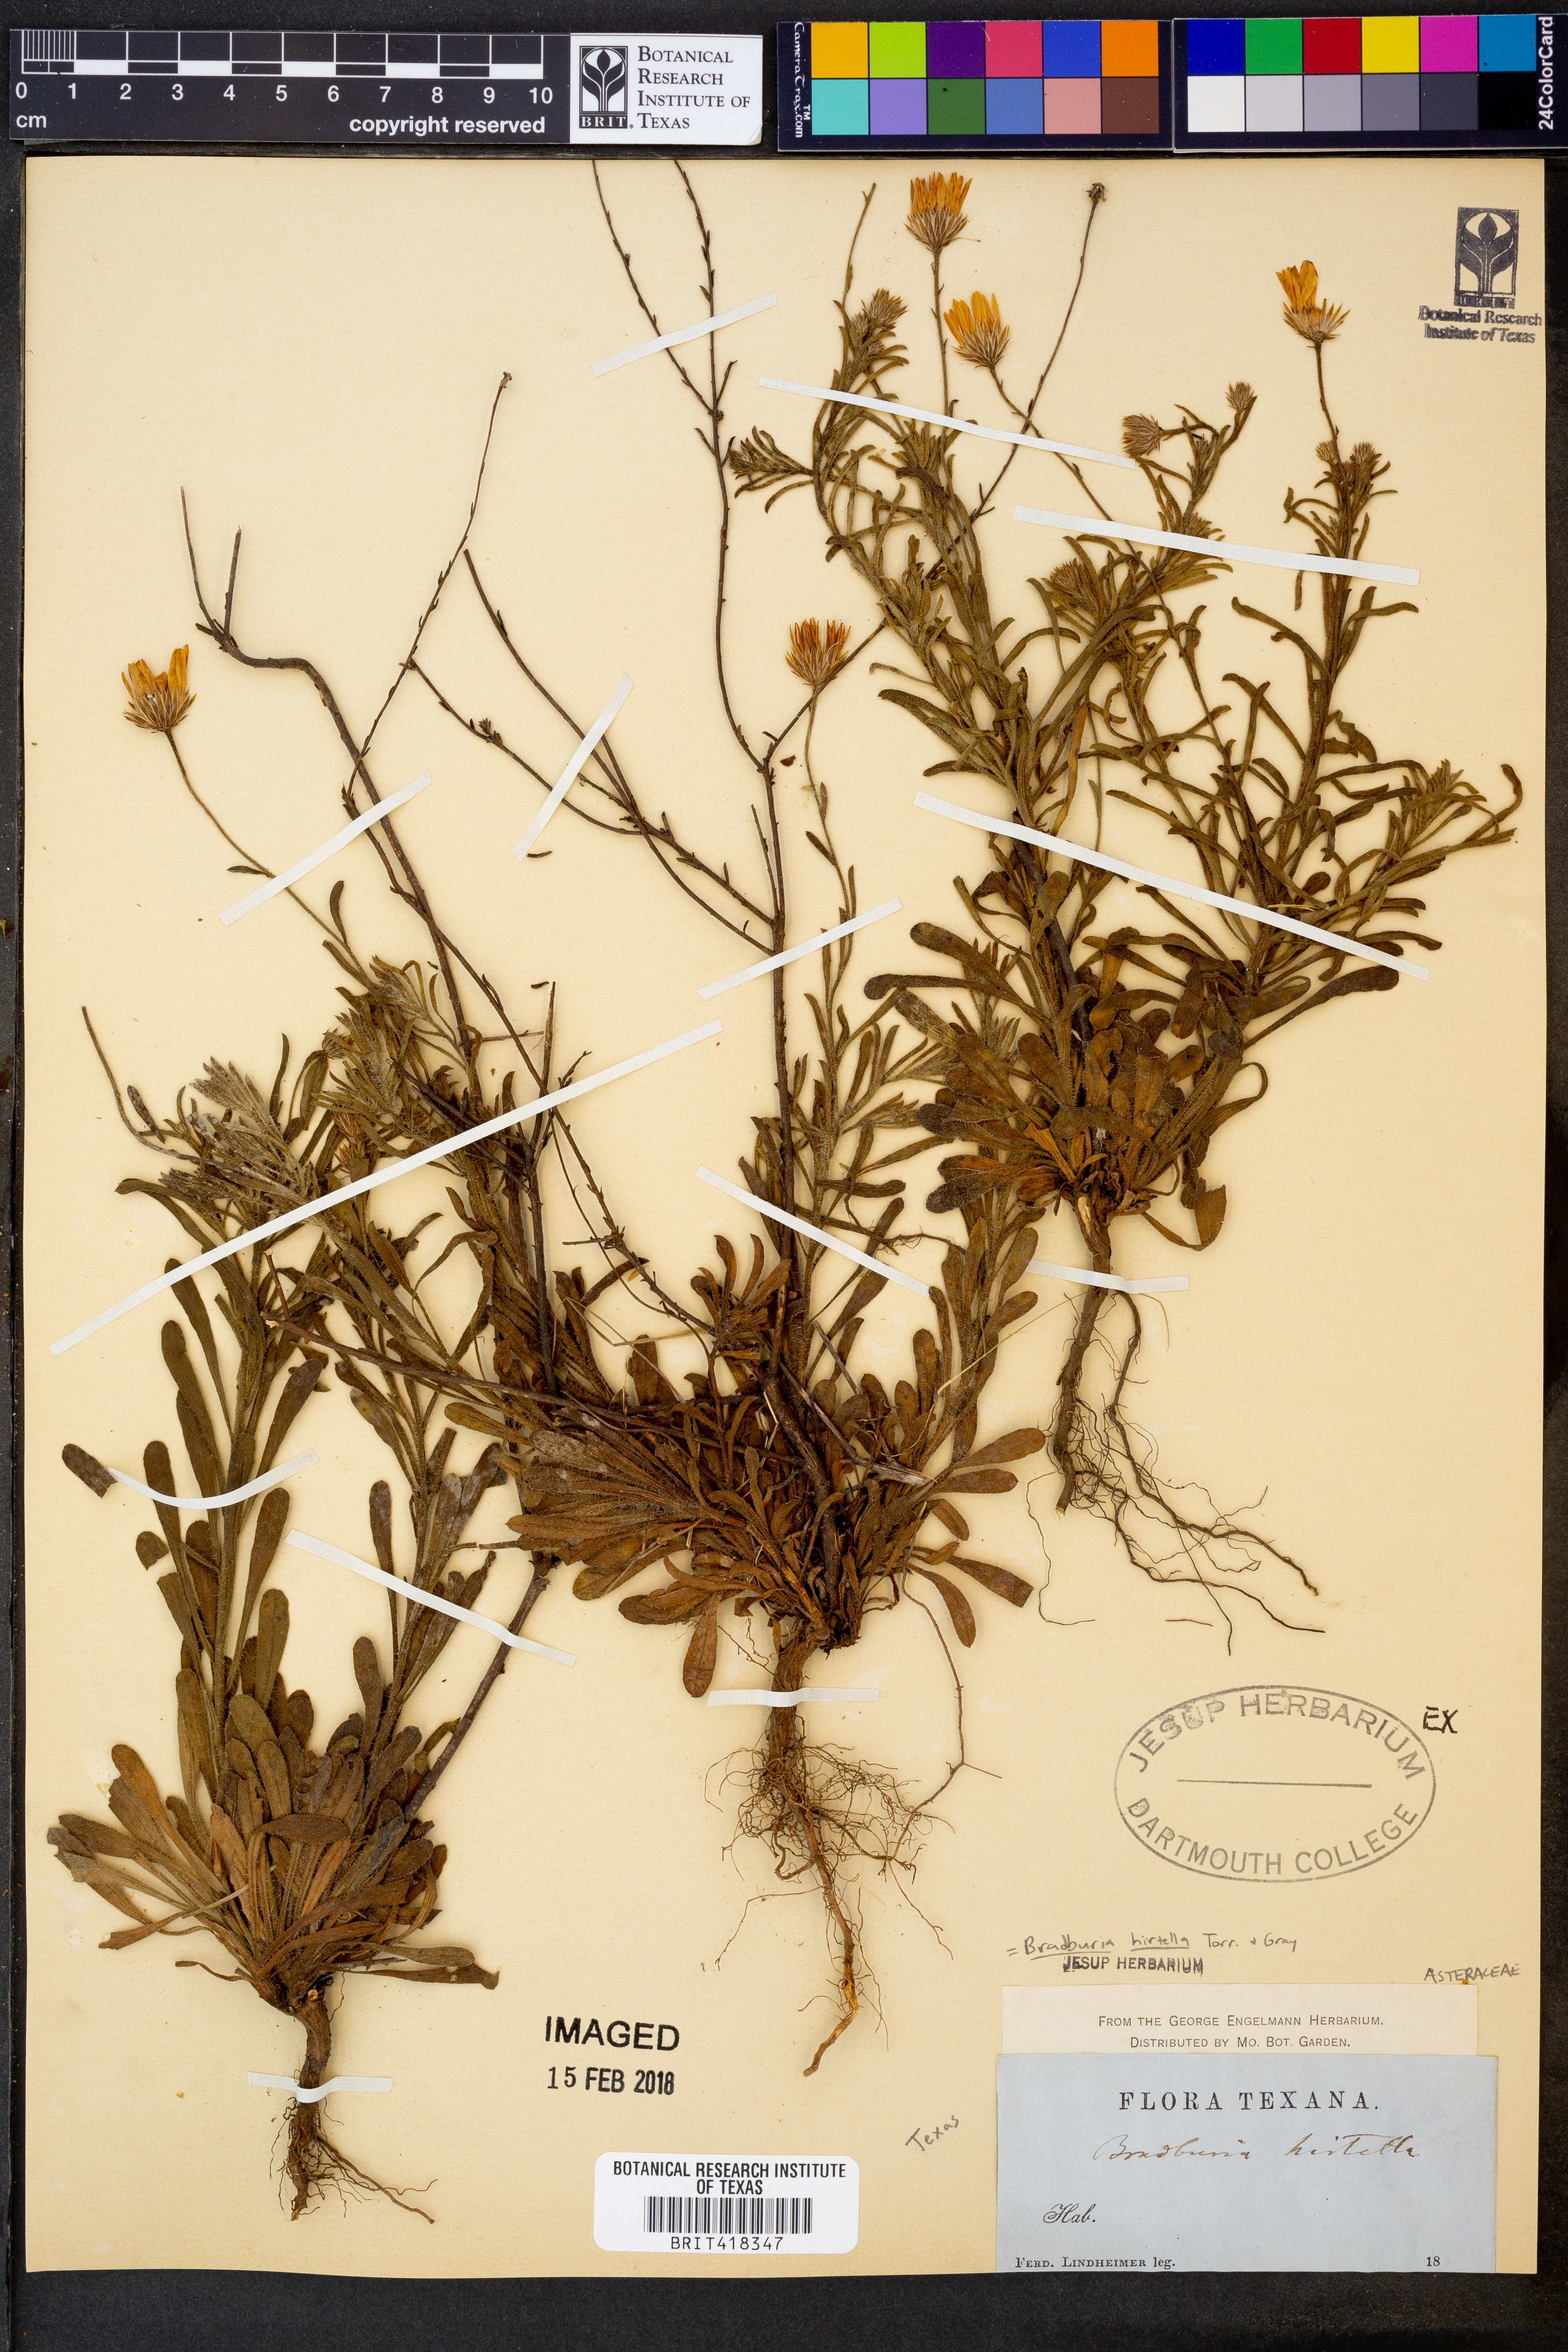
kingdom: Plantae
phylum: Tracheophyta
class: Magnoliopsida
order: Asterales
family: Asteraceae
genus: Bradburia
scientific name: Bradburia hirtella
